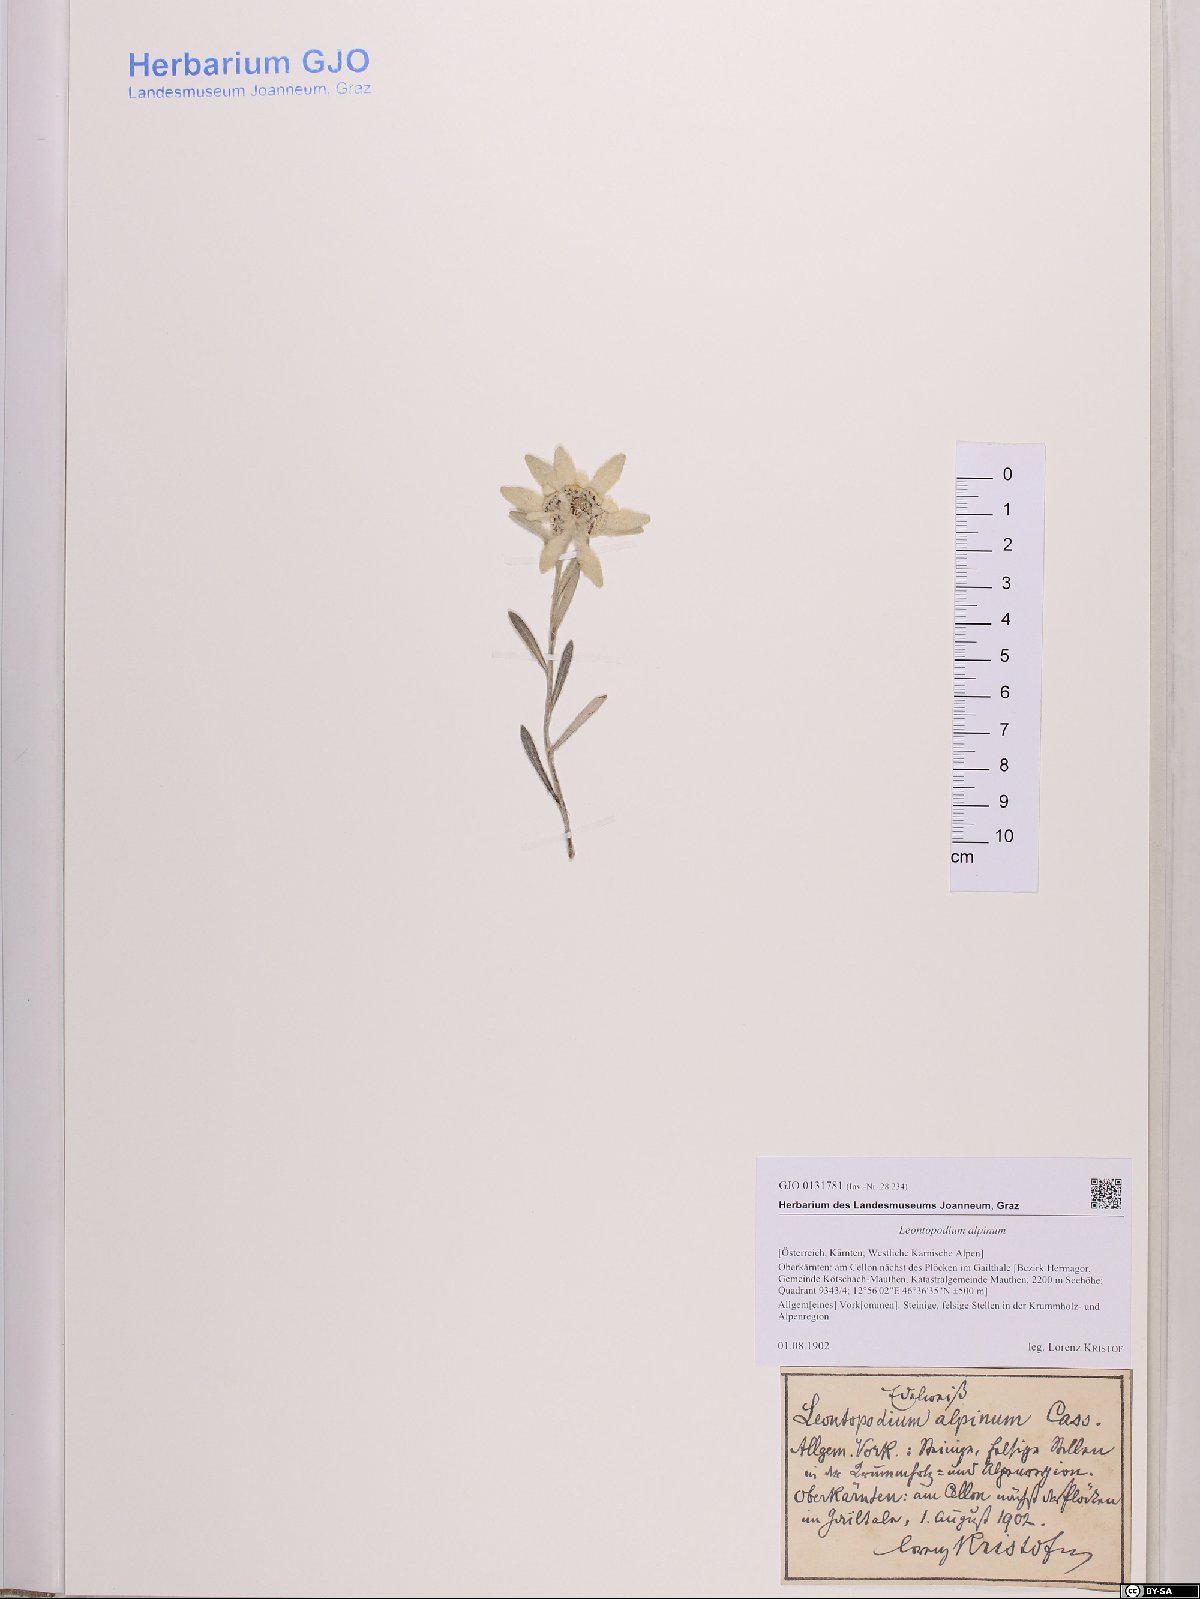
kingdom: Plantae
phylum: Tracheophyta
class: Magnoliopsida
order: Asterales
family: Asteraceae
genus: Leontopodium
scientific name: Leontopodium nivale
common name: Edelweiss
